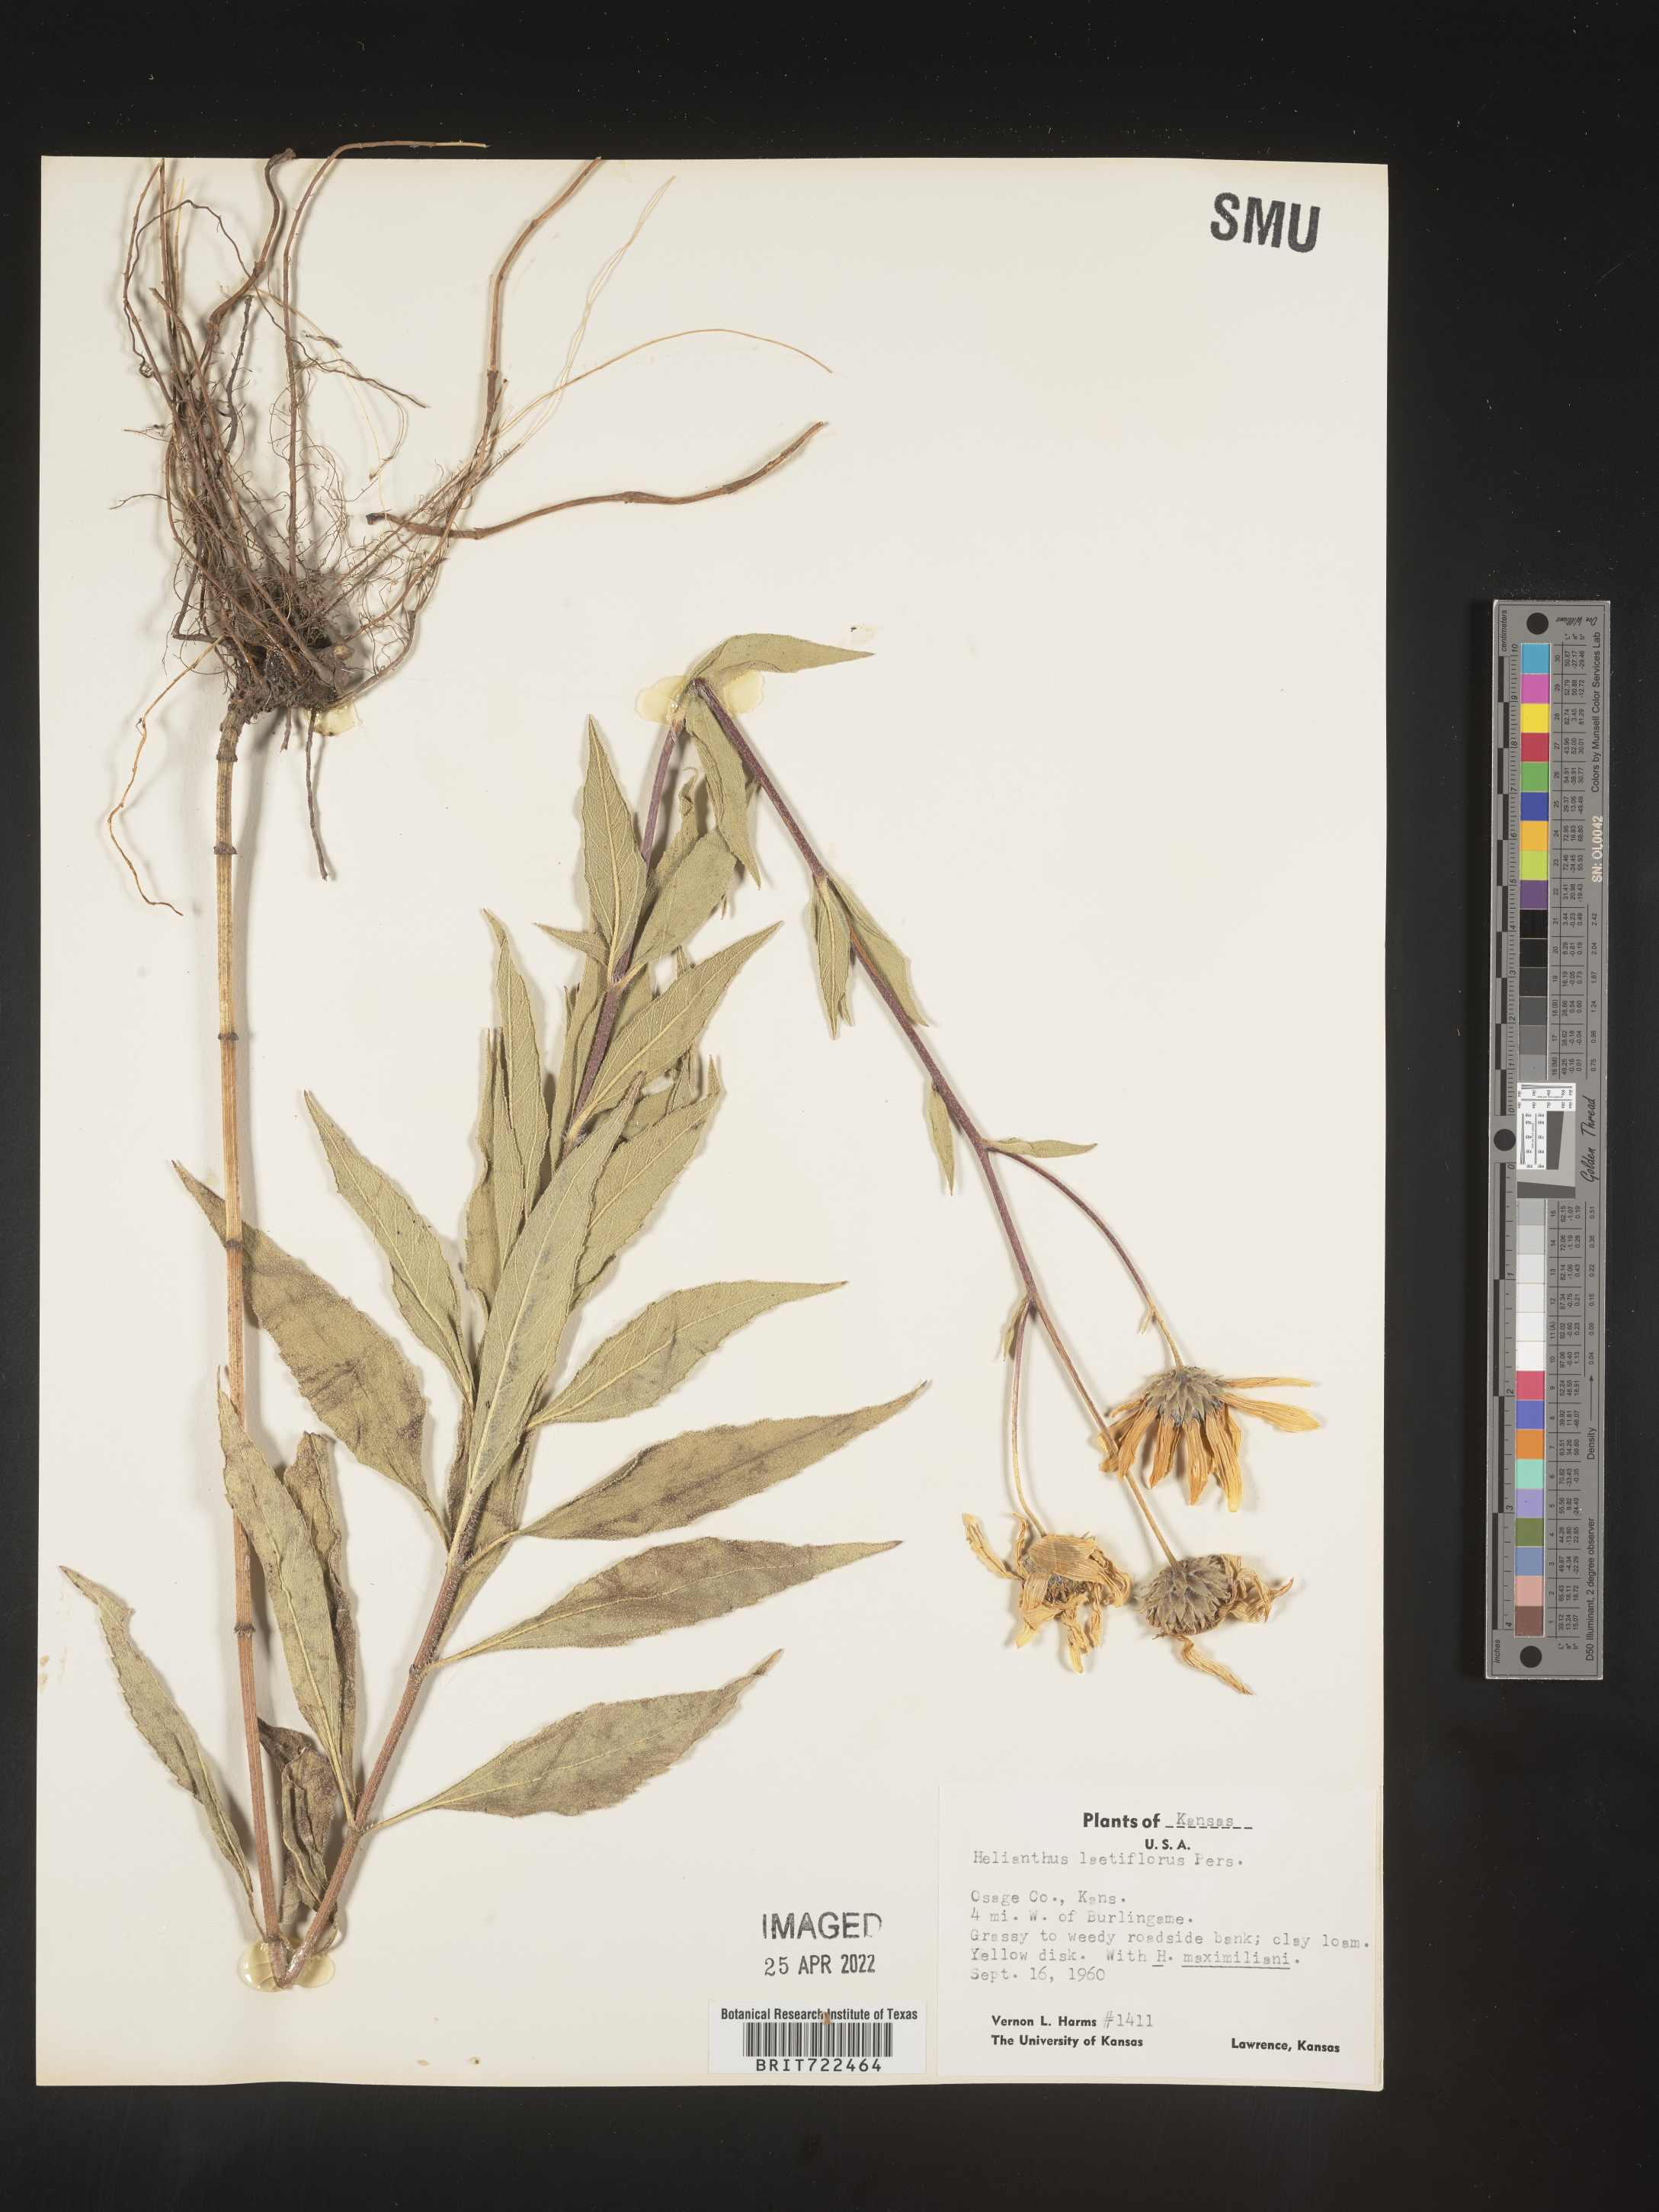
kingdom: Plantae
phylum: Tracheophyta
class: Magnoliopsida
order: Asterales
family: Asteraceae
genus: Helianthus
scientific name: Helianthus laetiflorus
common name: Perennial sunflower
